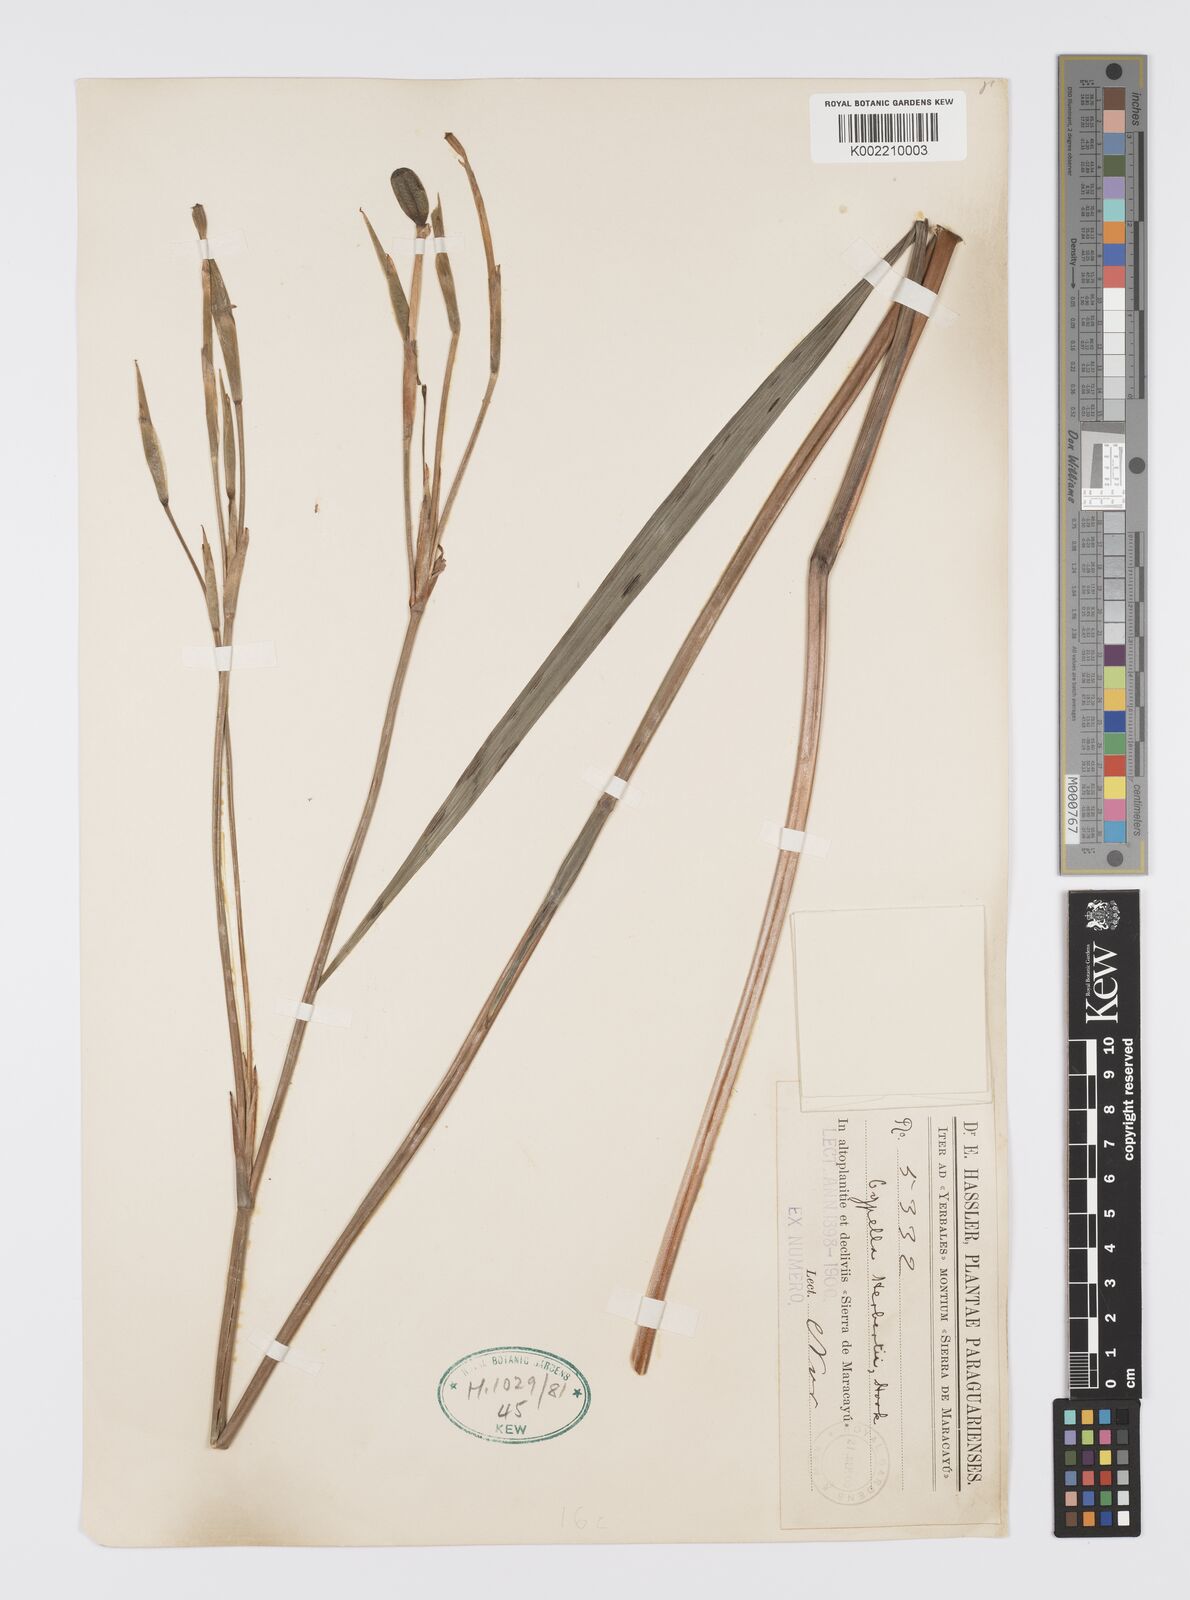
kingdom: Plantae
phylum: Tracheophyta
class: Liliopsida
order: Asparagales
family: Iridaceae
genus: Cypella
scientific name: Cypella herbertii
